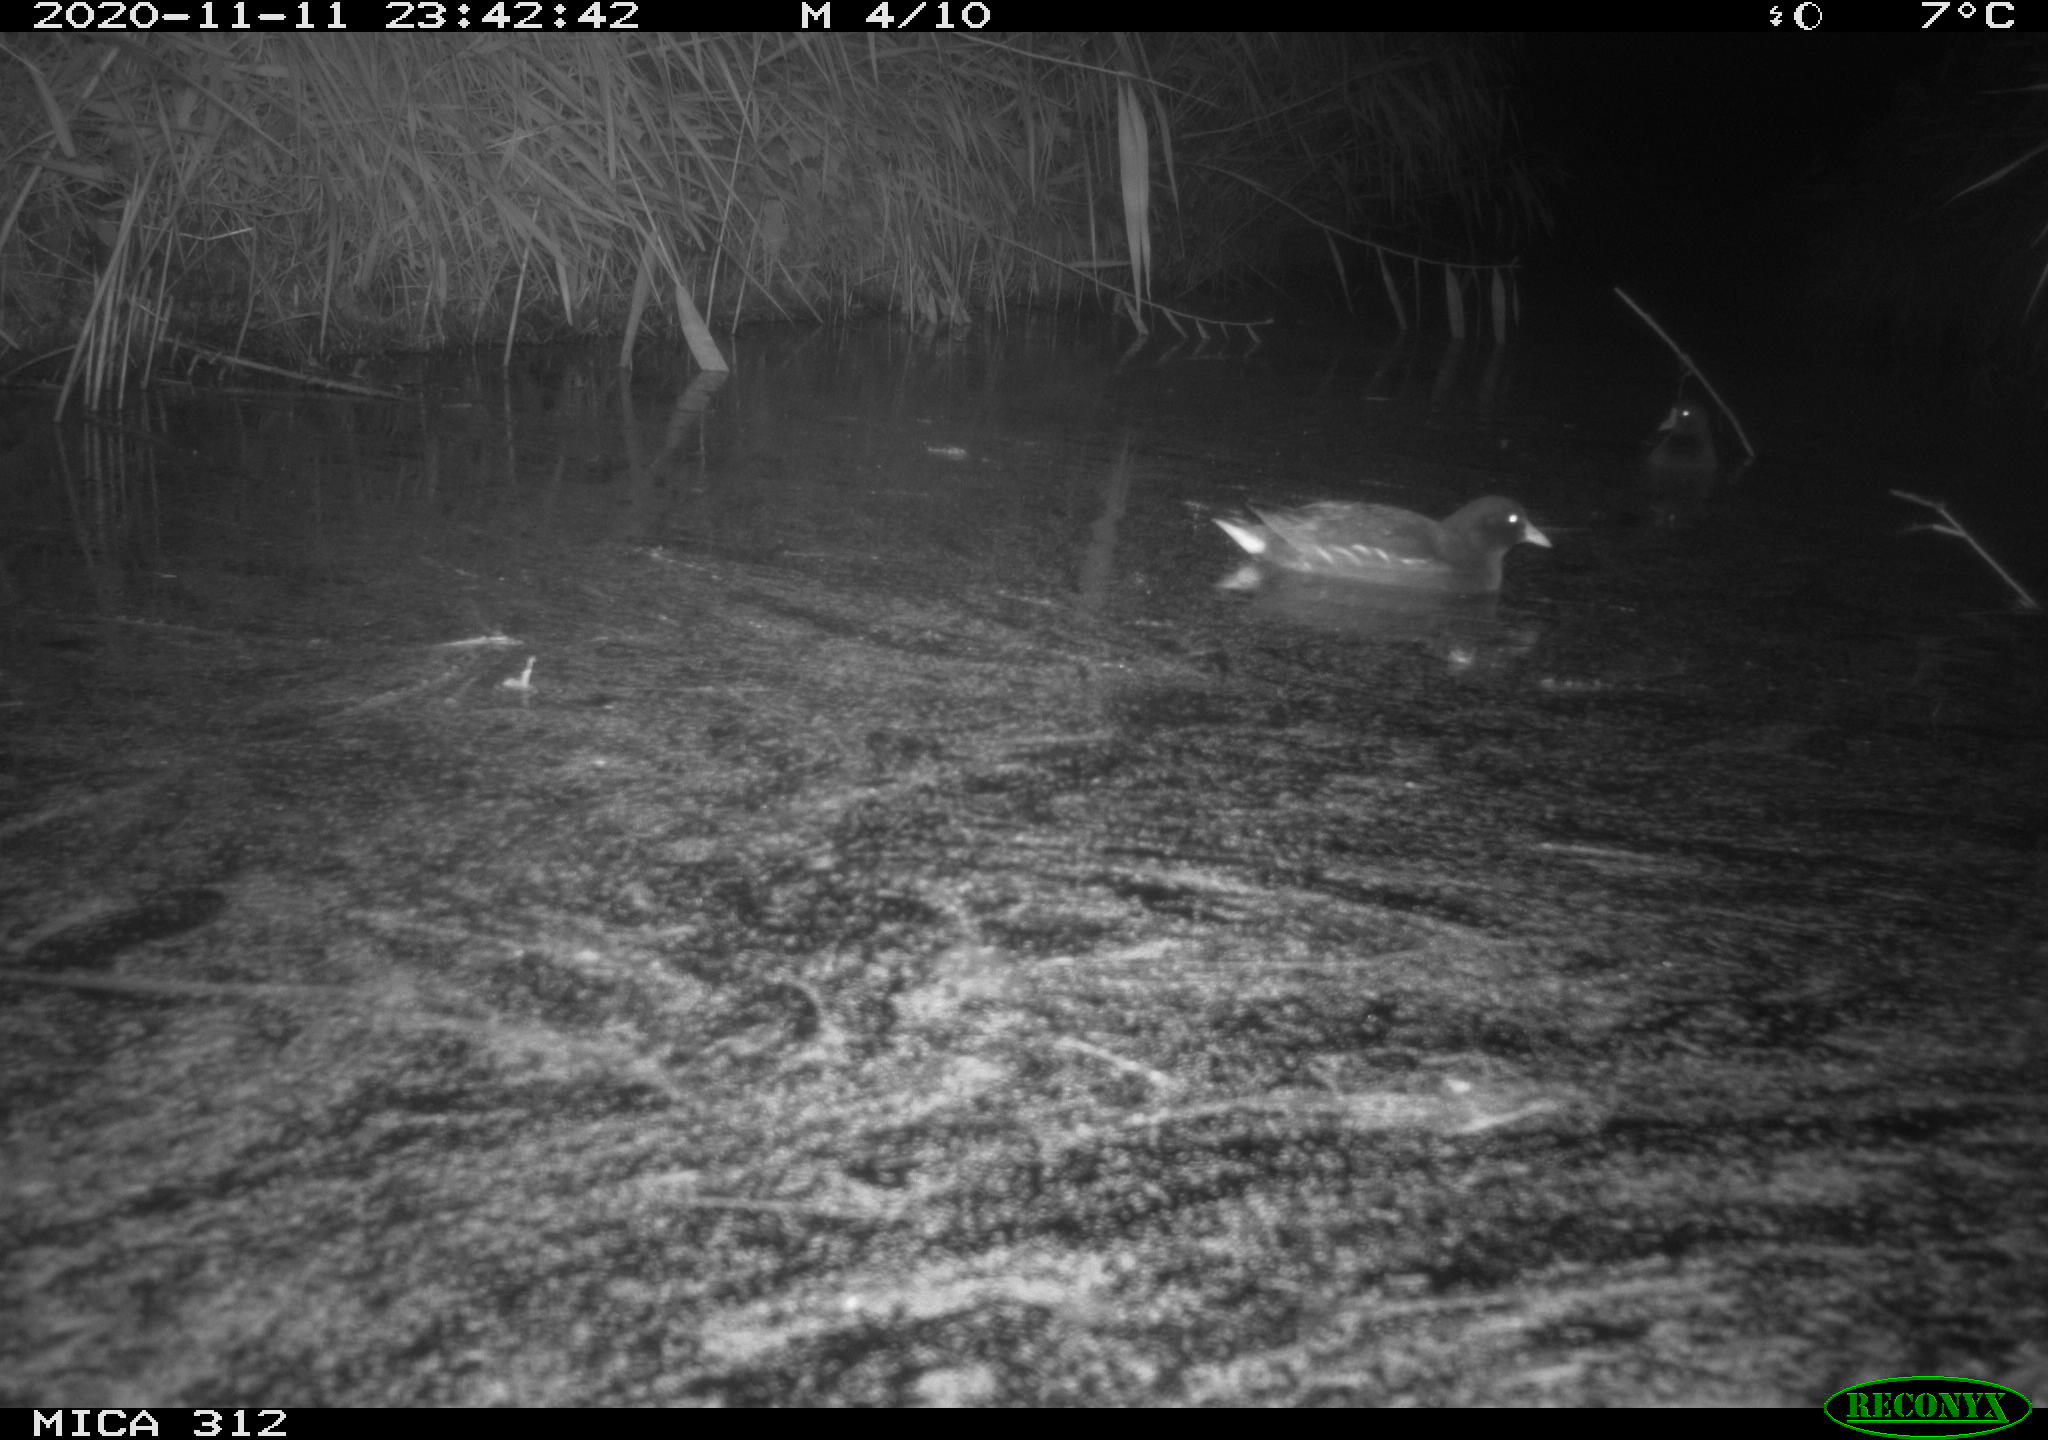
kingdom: Animalia
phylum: Chordata
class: Aves
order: Gruiformes
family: Rallidae
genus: Fulica
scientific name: Fulica atra
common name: Eurasian coot
